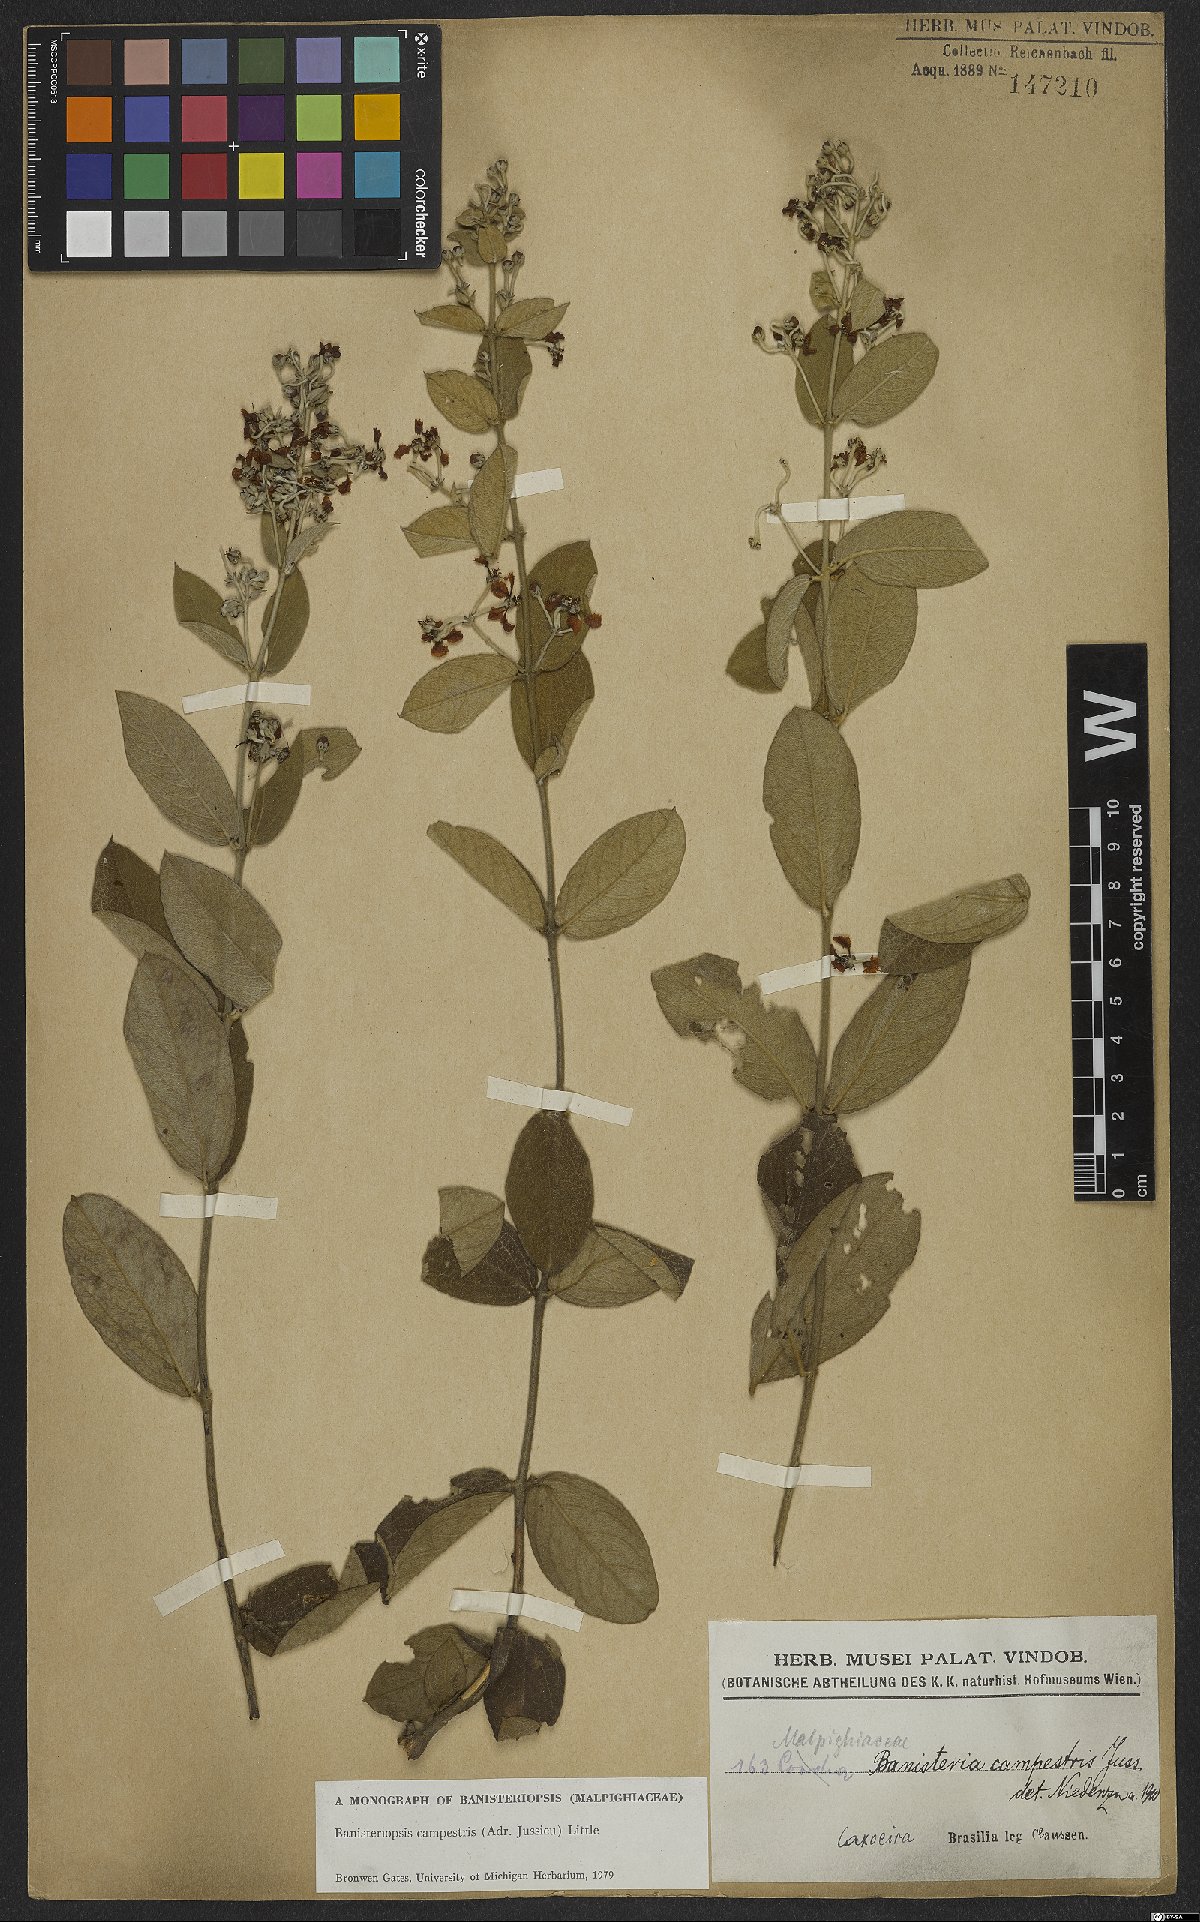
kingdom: Plantae
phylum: Tracheophyta
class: Magnoliopsida
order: Malpighiales
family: Malpighiaceae
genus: Banisteriopsis
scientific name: Banisteriopsis campestris
